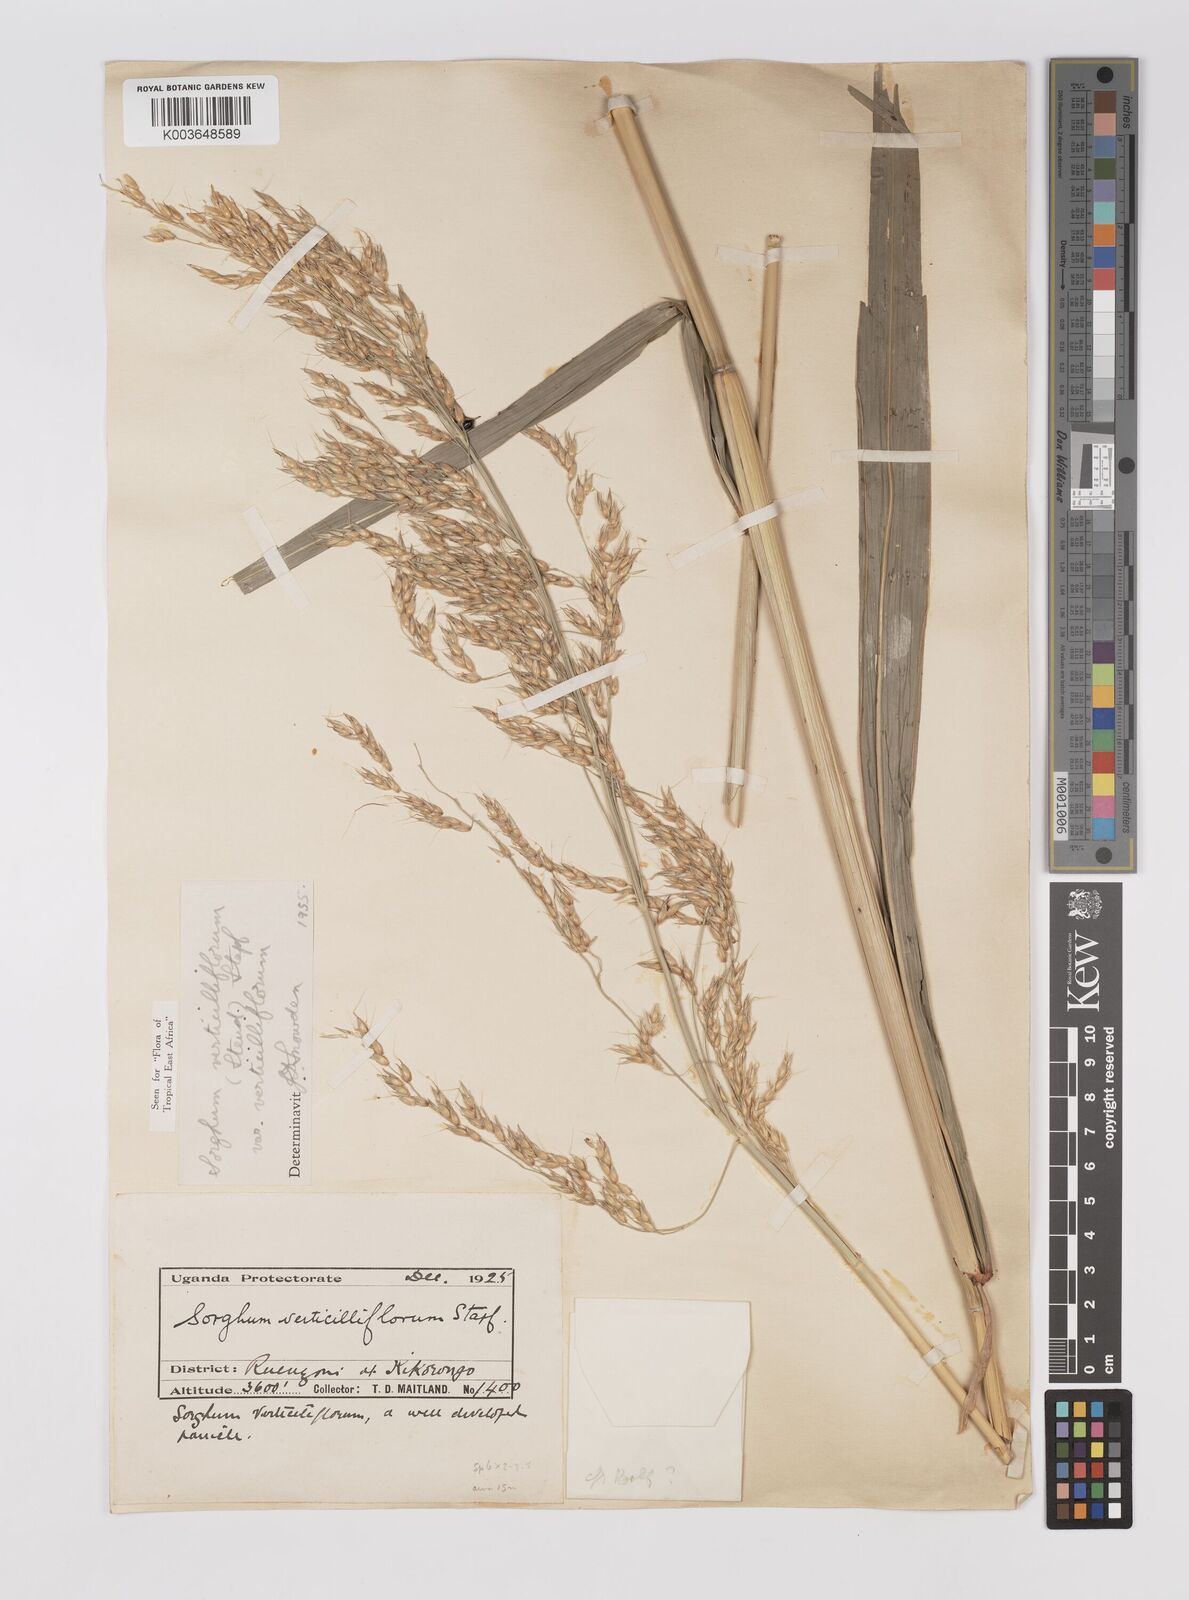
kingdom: Plantae
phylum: Tracheophyta
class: Liliopsida
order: Poales
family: Poaceae
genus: Sorghum
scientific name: Sorghum arundinaceum
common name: Sorghum
